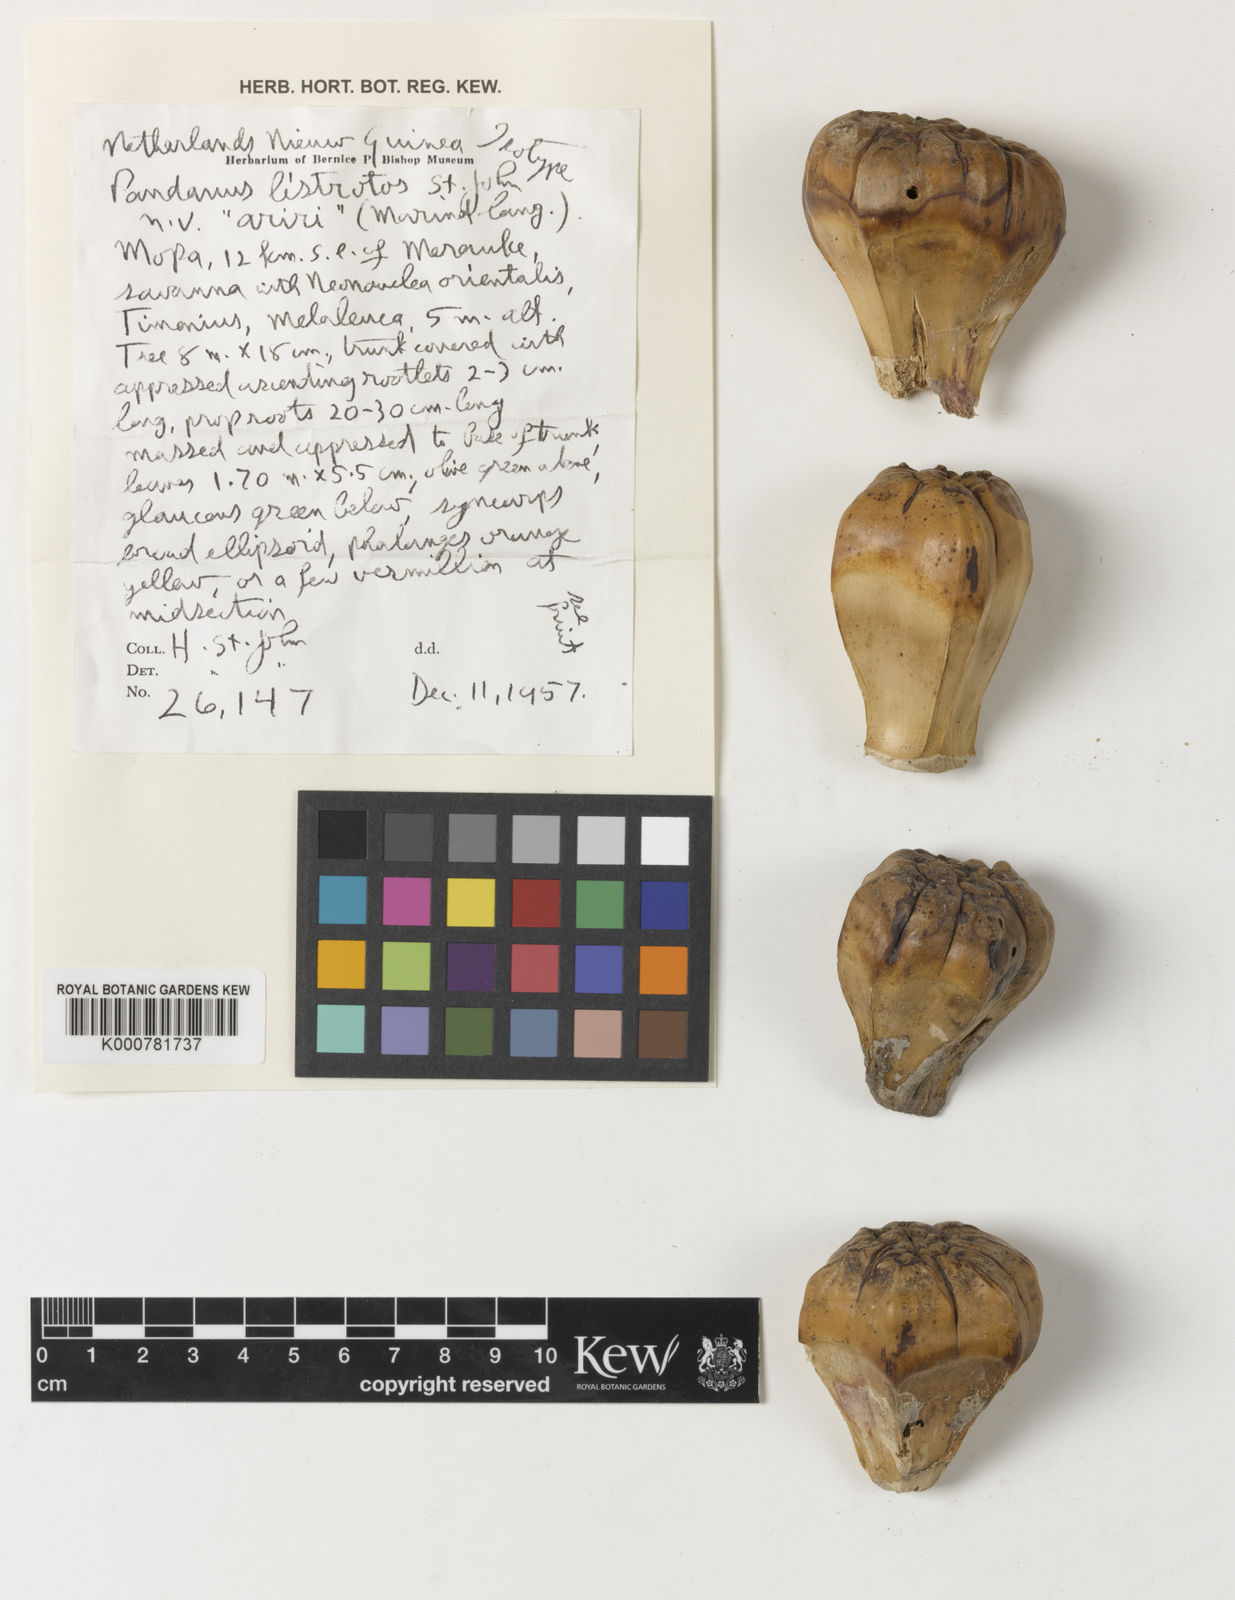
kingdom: Plantae
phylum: Tracheophyta
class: Liliopsida
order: Pandanales
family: Pandanaceae
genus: Pandanus
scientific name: Pandanus
